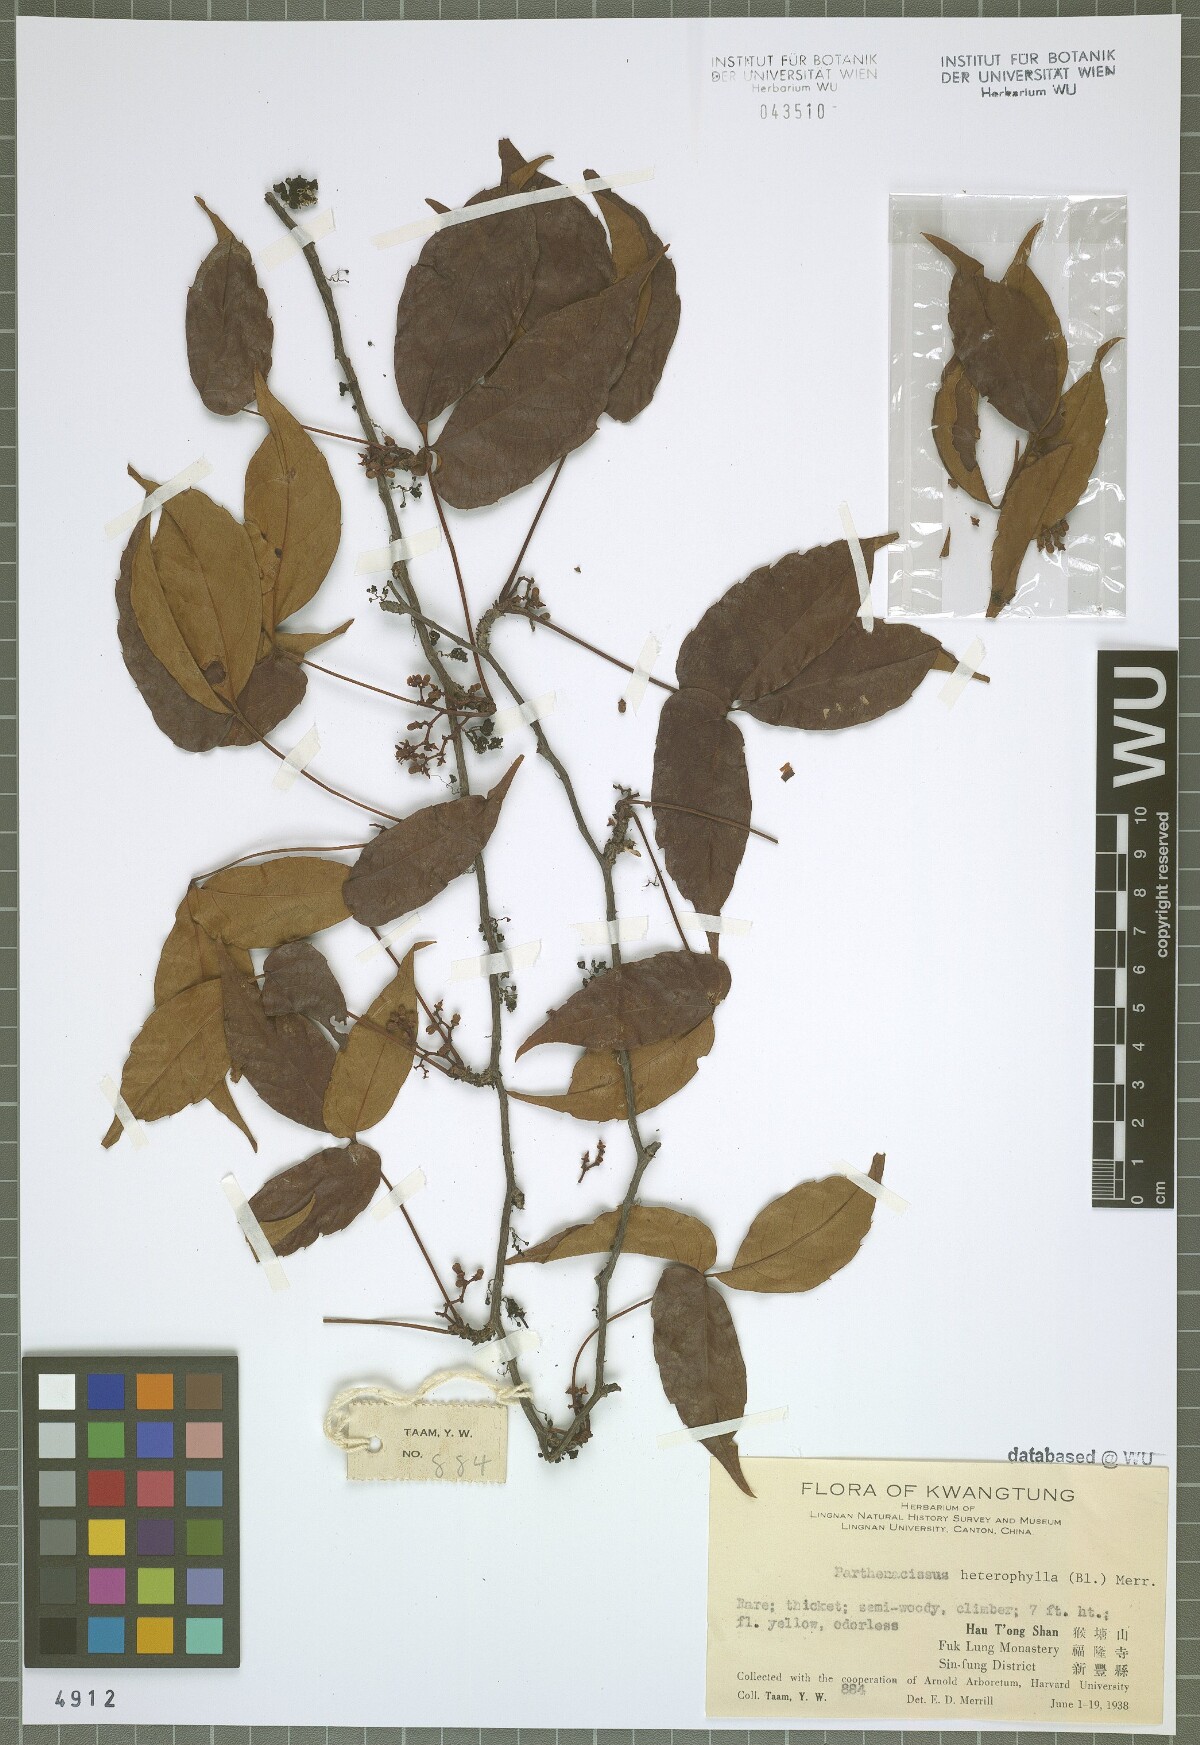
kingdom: Plantae
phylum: Tracheophyta
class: Magnoliopsida
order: Vitales
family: Vitaceae
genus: Parthenocissus
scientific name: Parthenocissus semicordata
